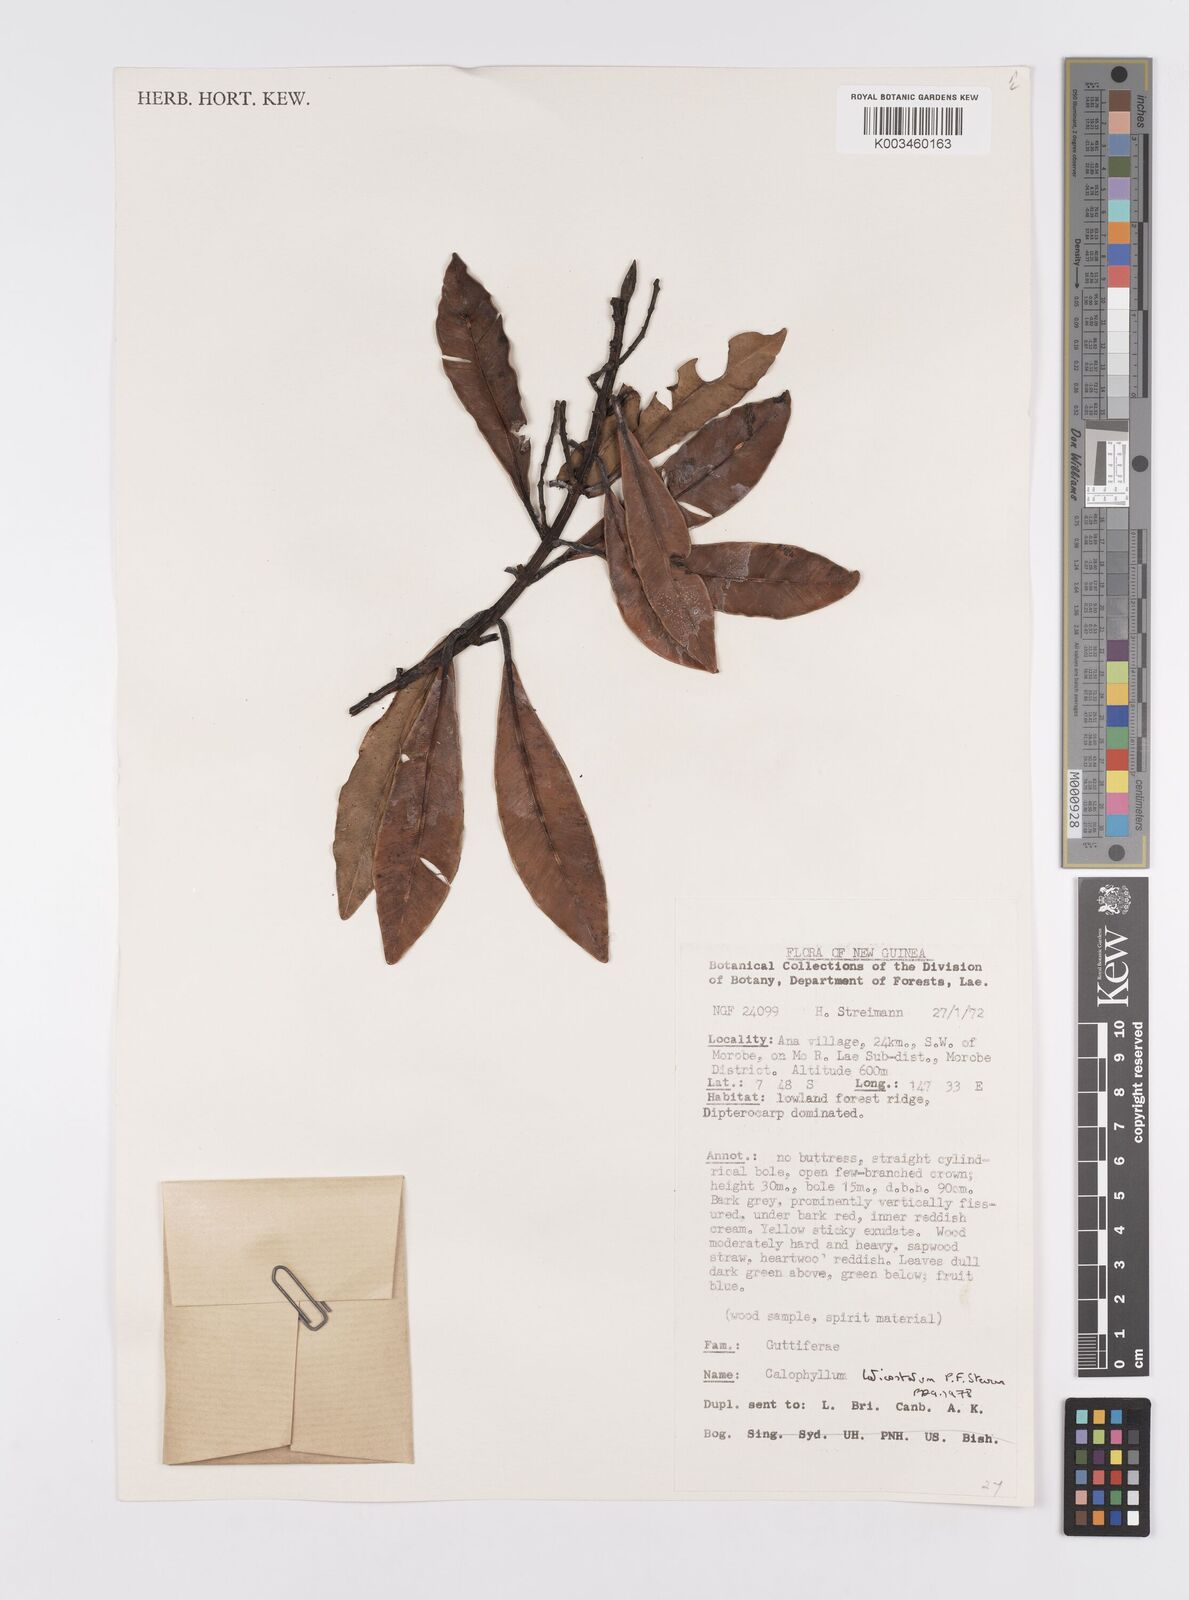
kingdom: Plantae
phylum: Tracheophyta
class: Magnoliopsida
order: Malpighiales
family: Calophyllaceae
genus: Calophyllum
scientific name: Calophyllum laticostatum
